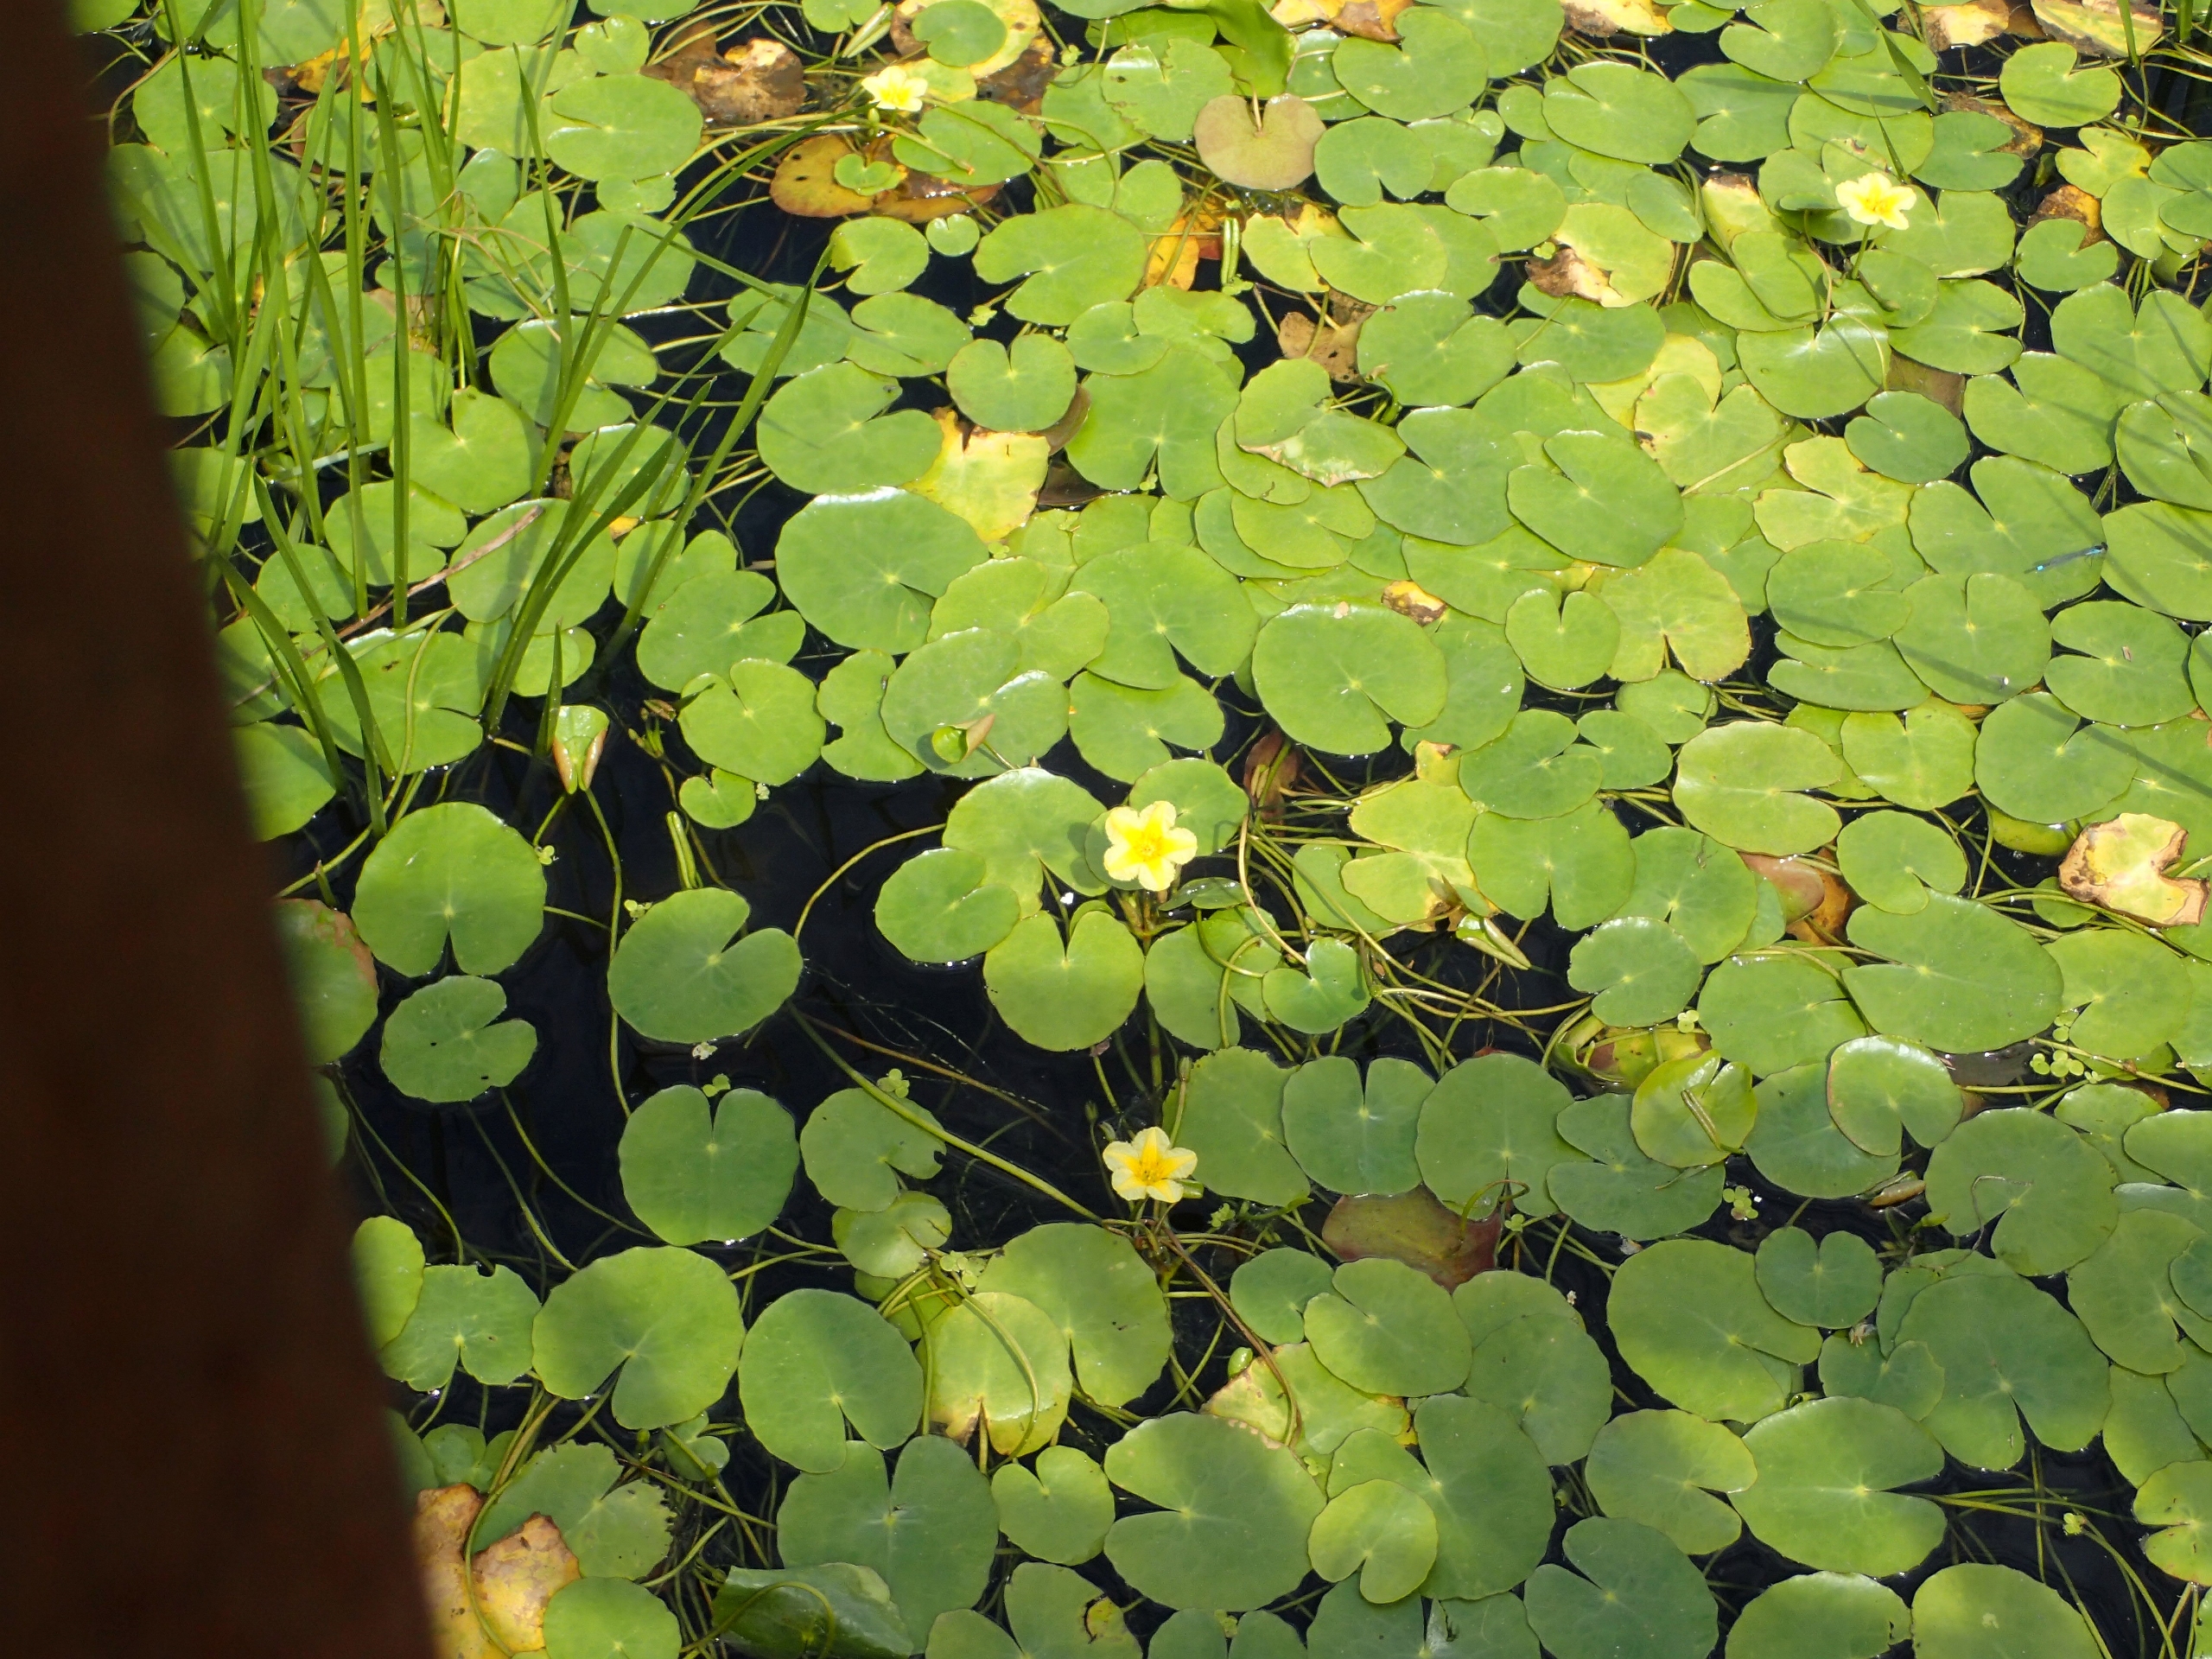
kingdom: Plantae
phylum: Tracheophyta
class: Magnoliopsida
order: Asterales
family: Menyanthaceae
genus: Nymphoides
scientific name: Nymphoides peltata
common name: Søblad
